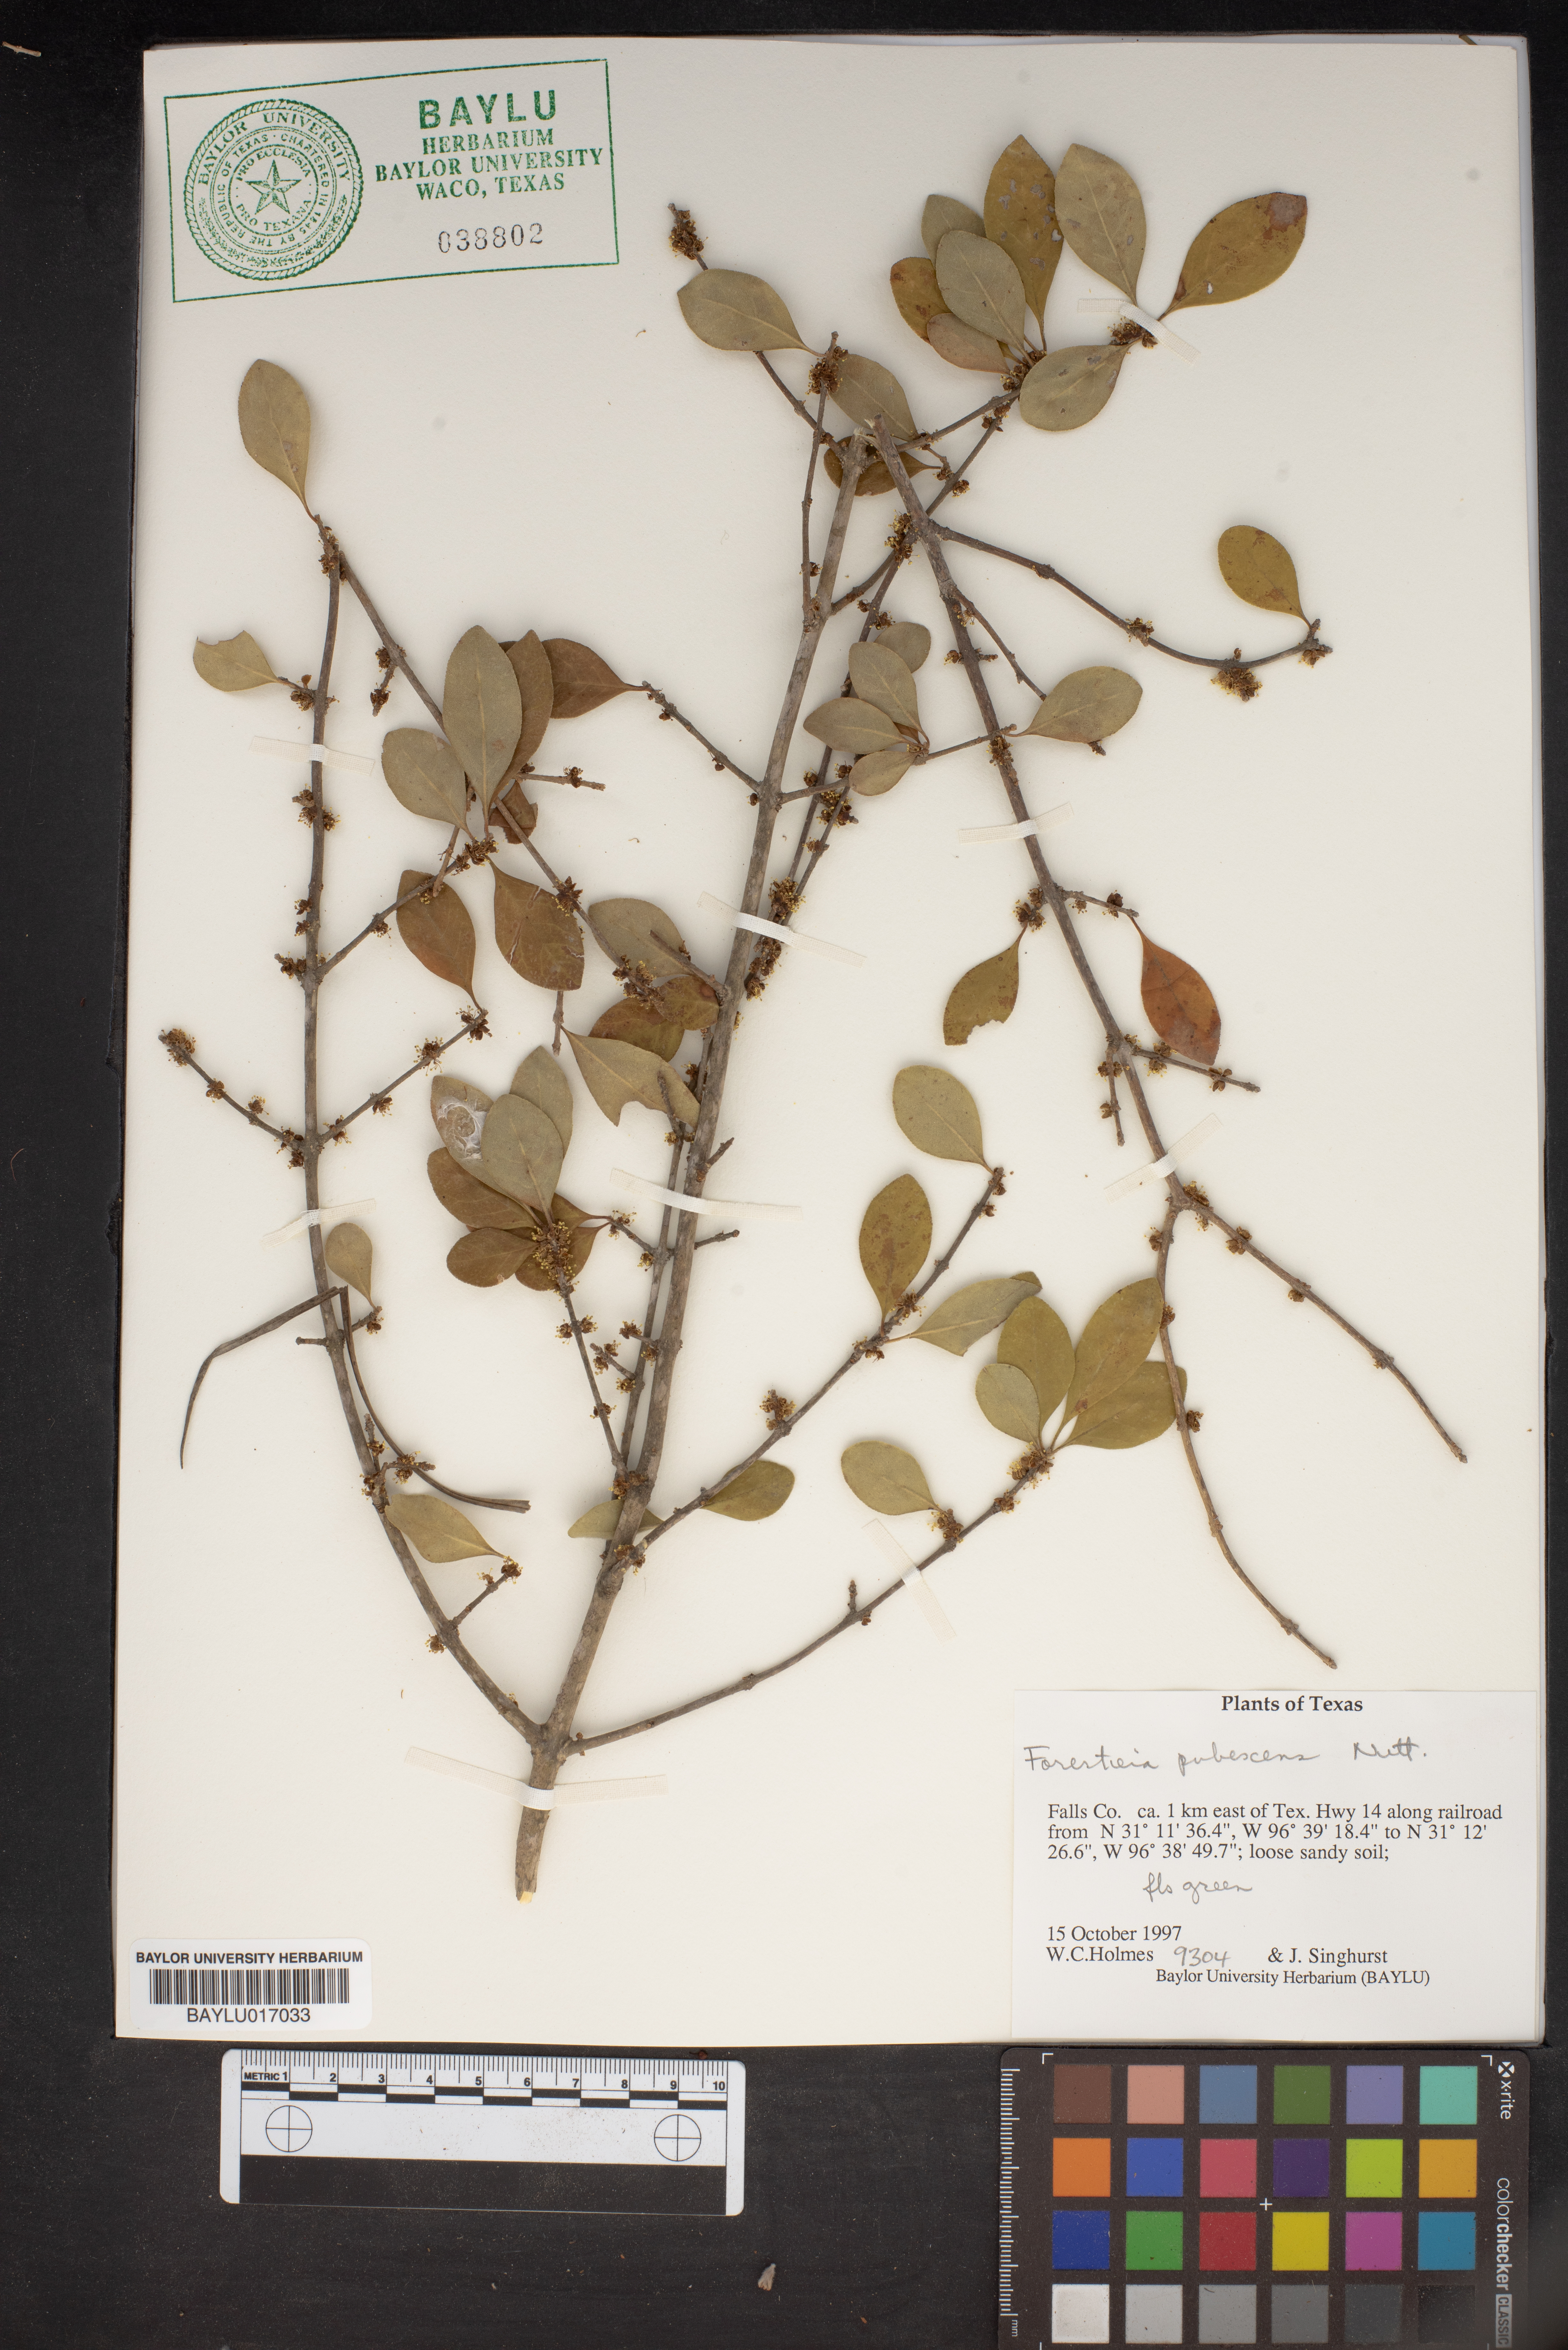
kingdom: Plantae
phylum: Tracheophyta
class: Magnoliopsida
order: Lamiales
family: Oleaceae
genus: Forestiera
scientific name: Forestiera pubescens
